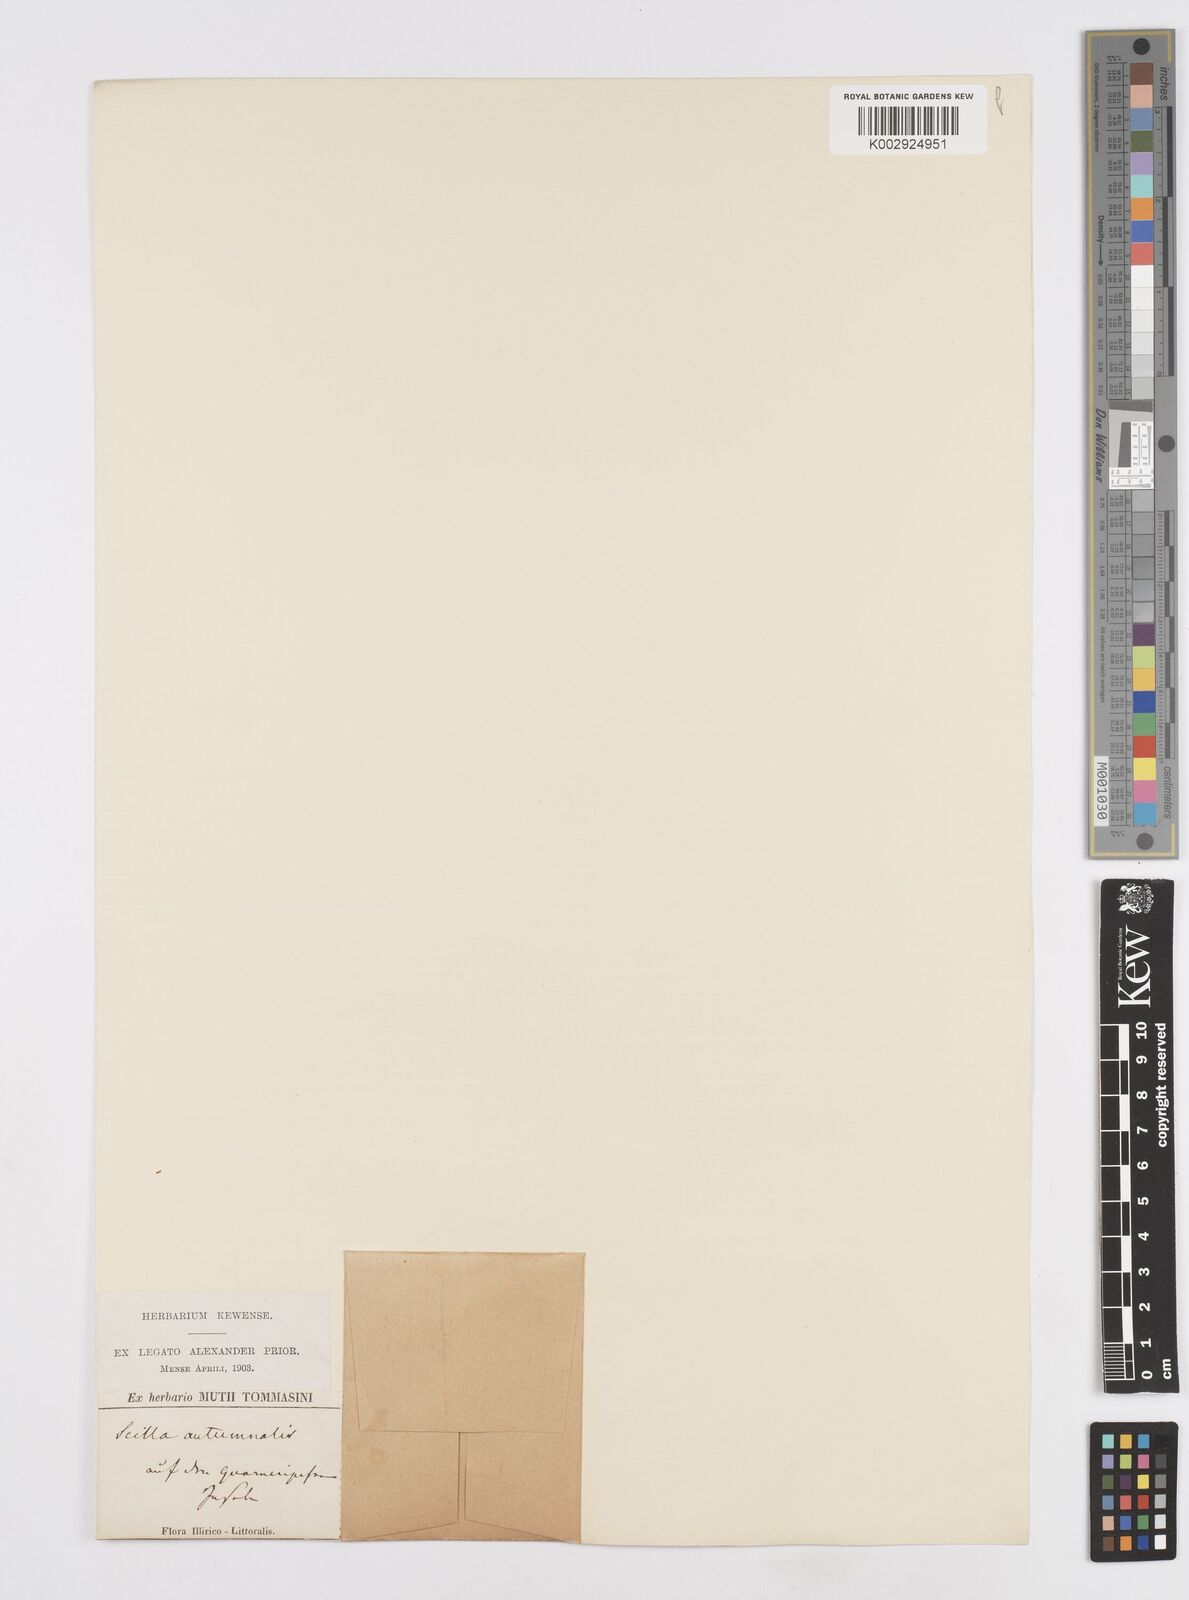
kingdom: Plantae
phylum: Tracheophyta
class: Liliopsida
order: Asparagales
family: Asparagaceae
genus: Prospero
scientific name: Prospero autumnale
